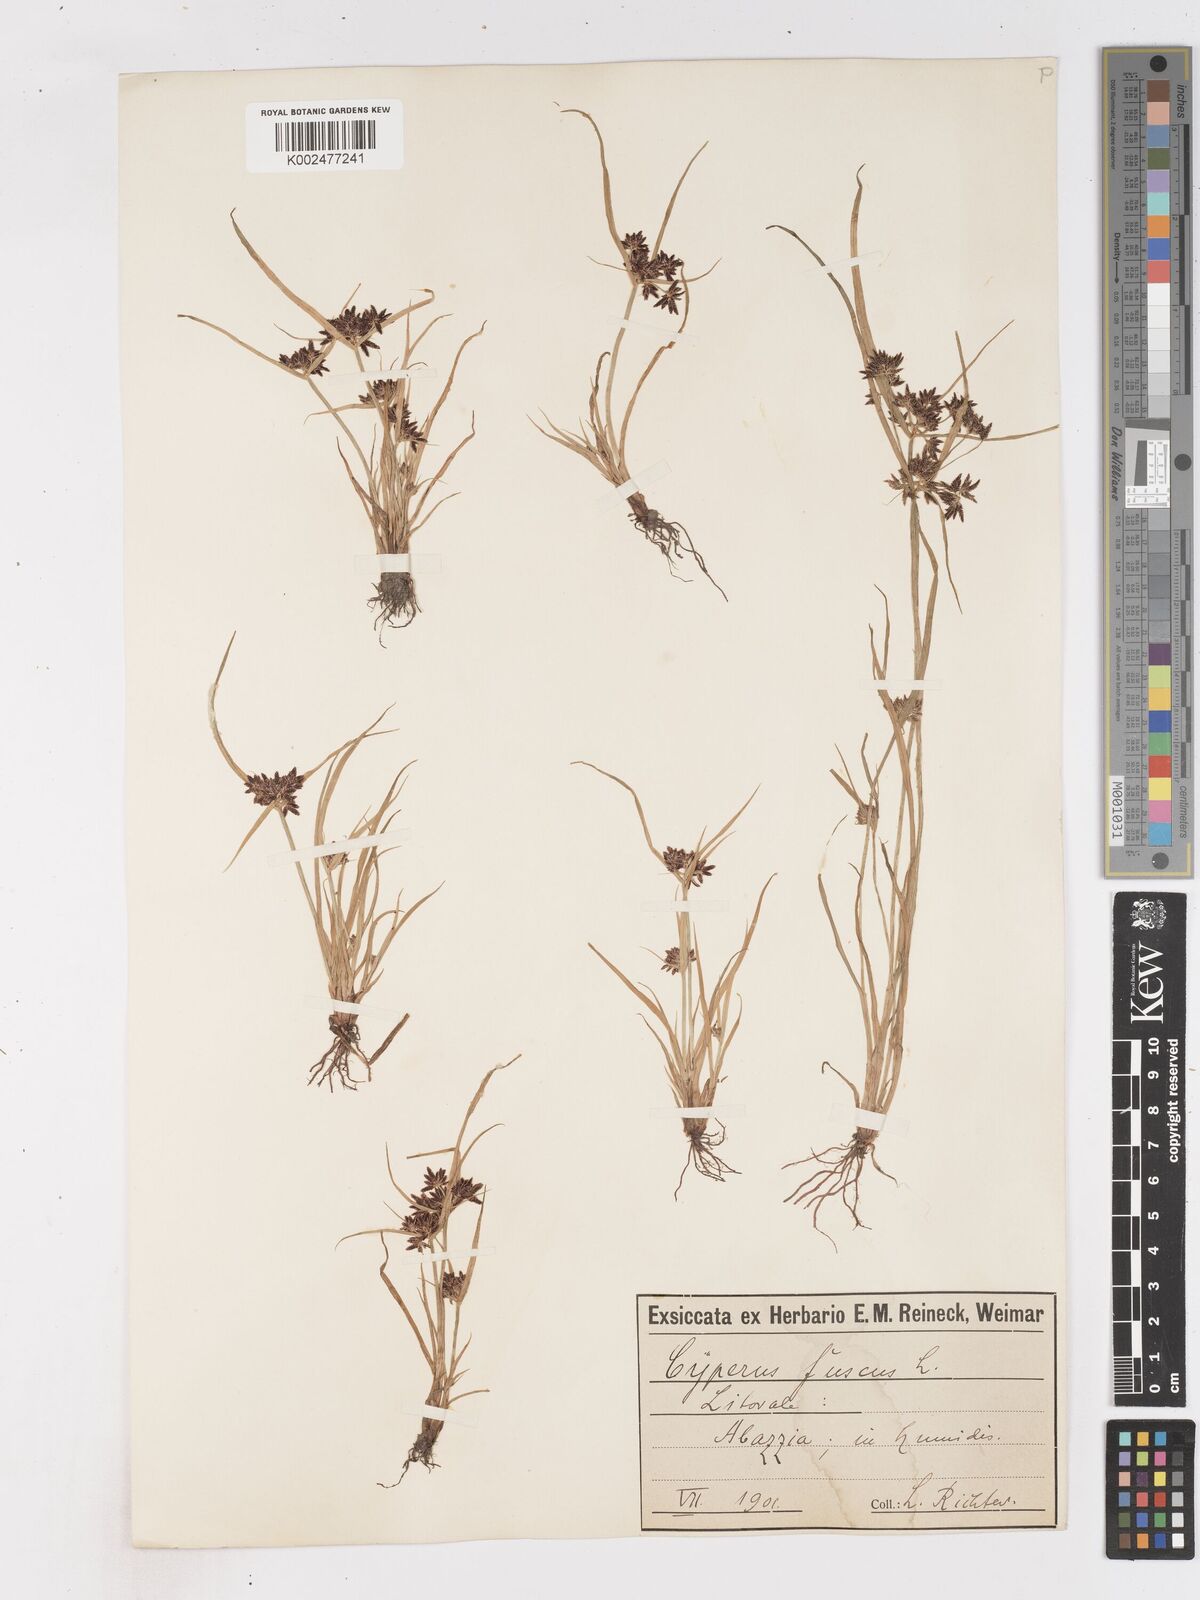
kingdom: Plantae
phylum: Tracheophyta
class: Liliopsida
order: Poales
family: Cyperaceae
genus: Cyperus
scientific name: Cyperus fuscus
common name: Brown galingale
